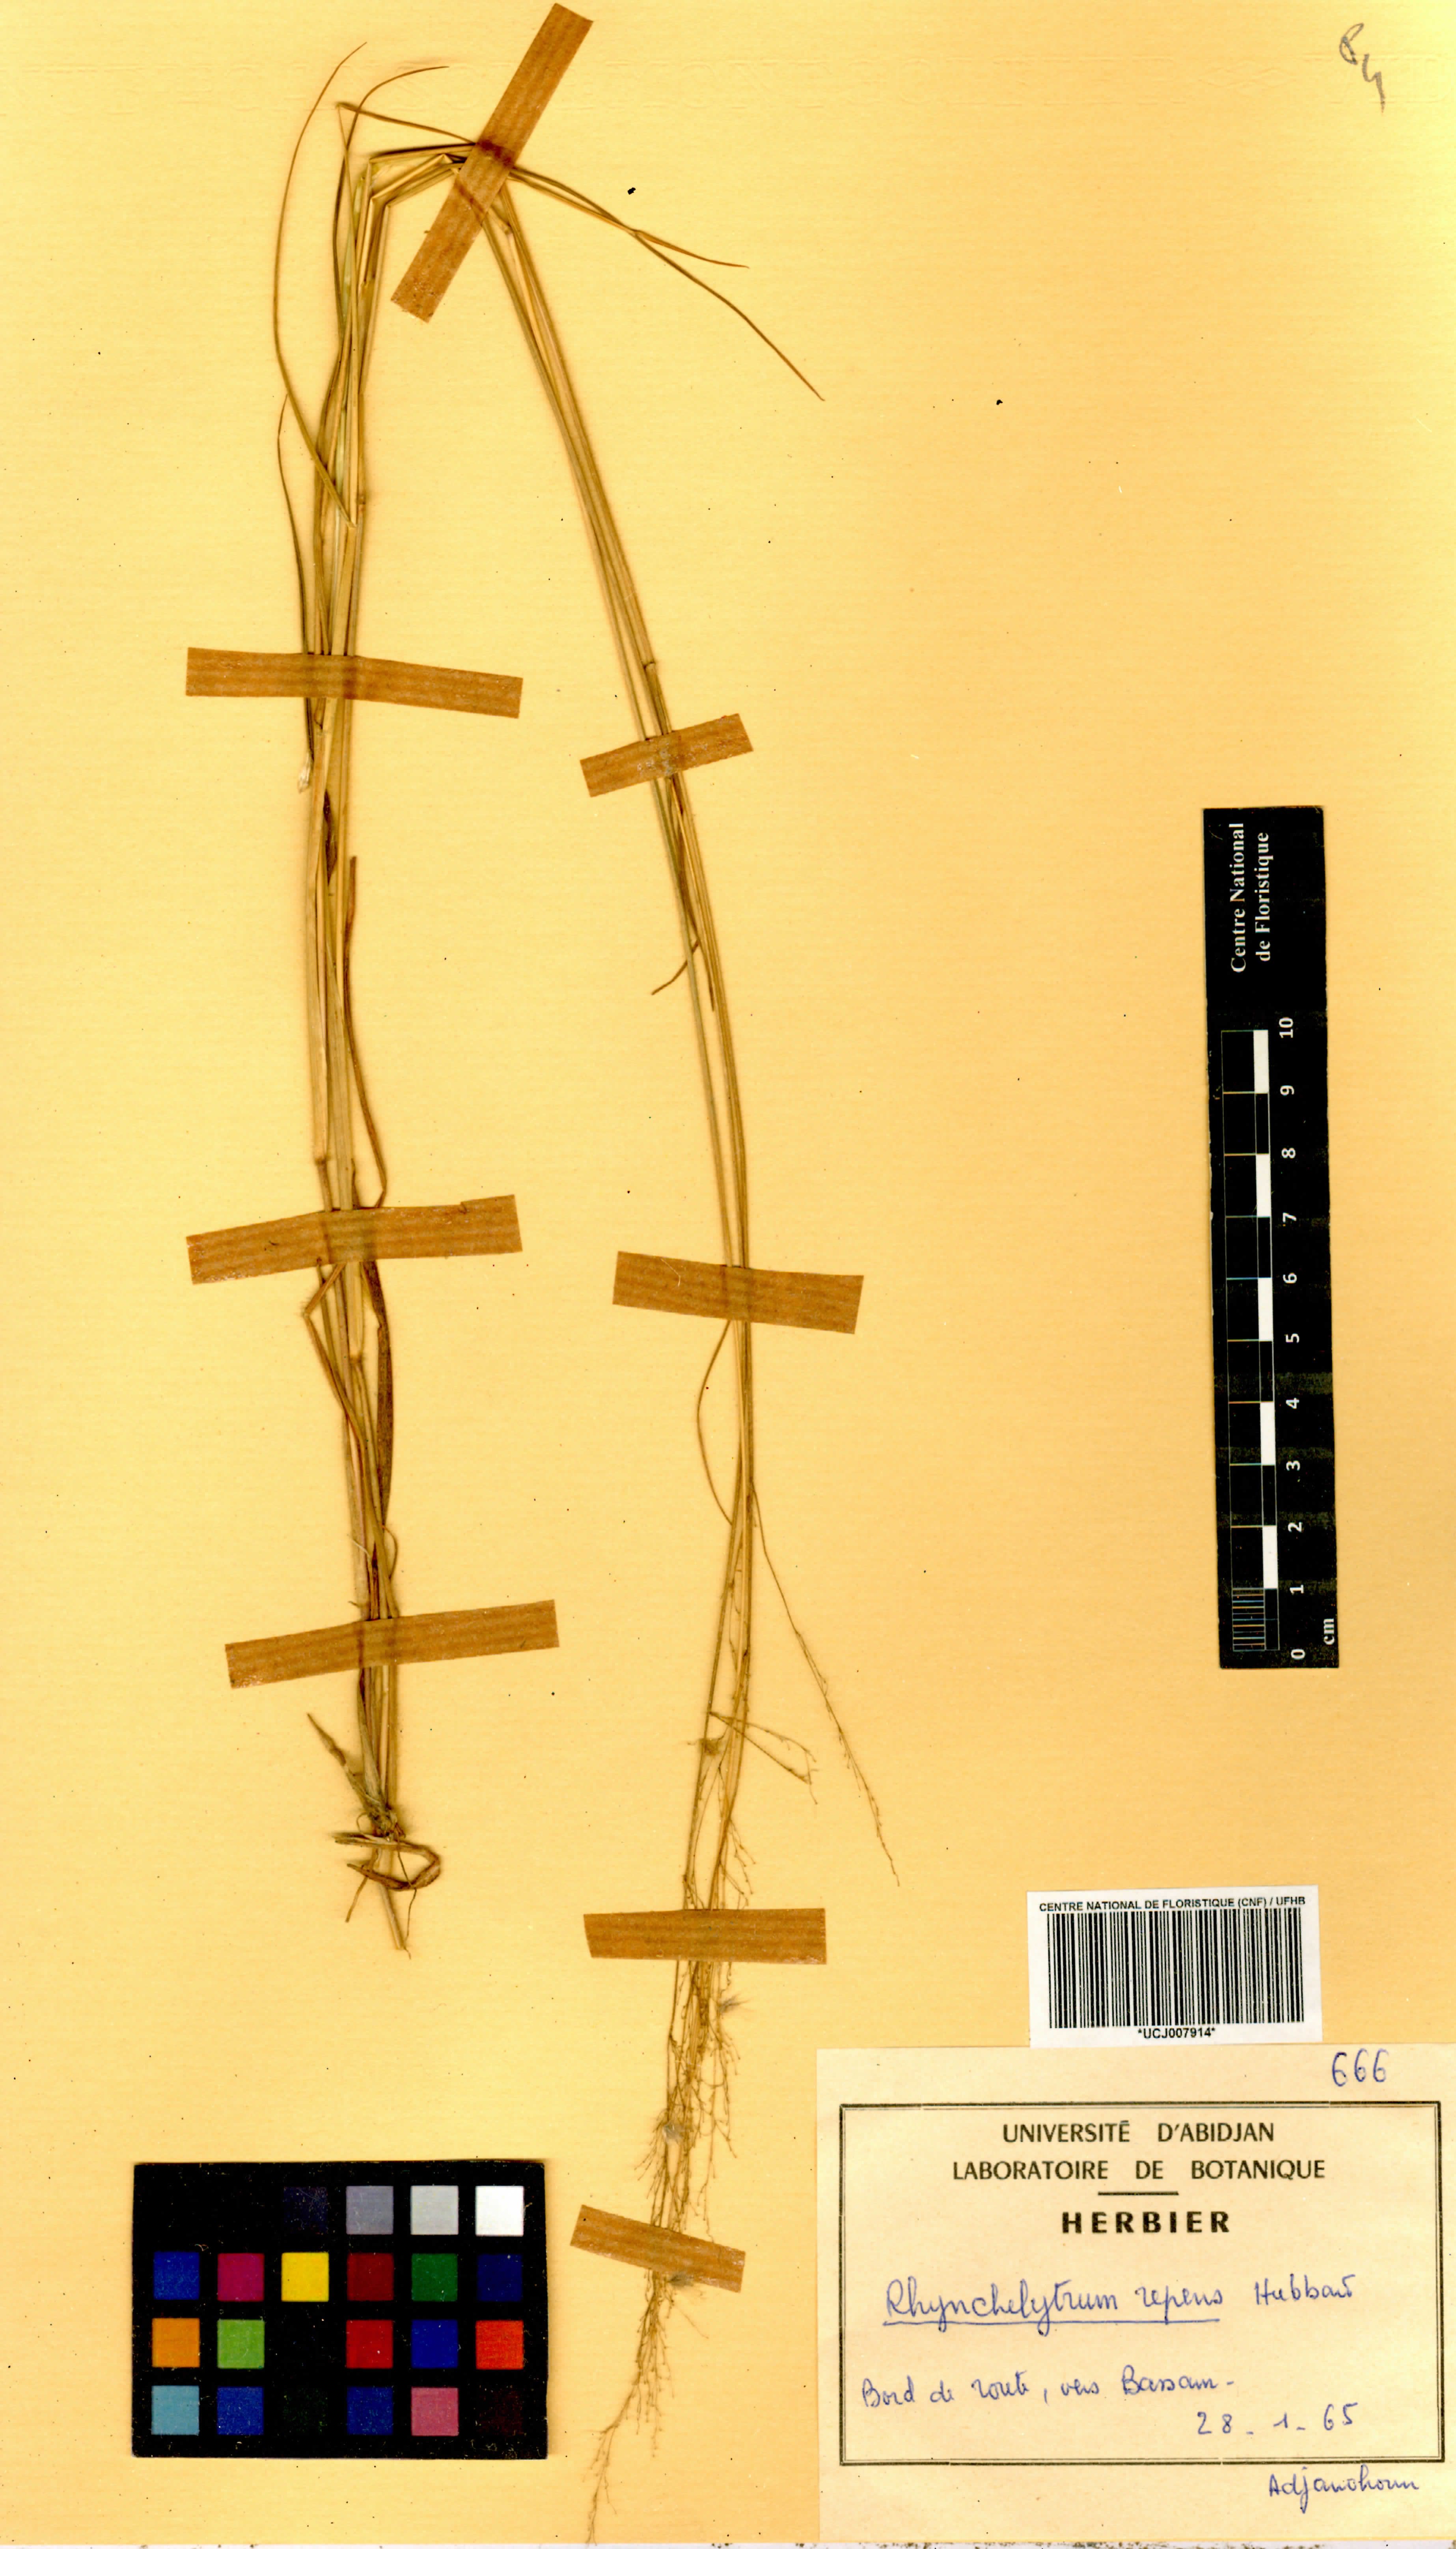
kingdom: Plantae
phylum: Tracheophyta
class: Liliopsida
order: Poales
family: Poaceae
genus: Melinis
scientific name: Melinis repens
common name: Rose natal grass
